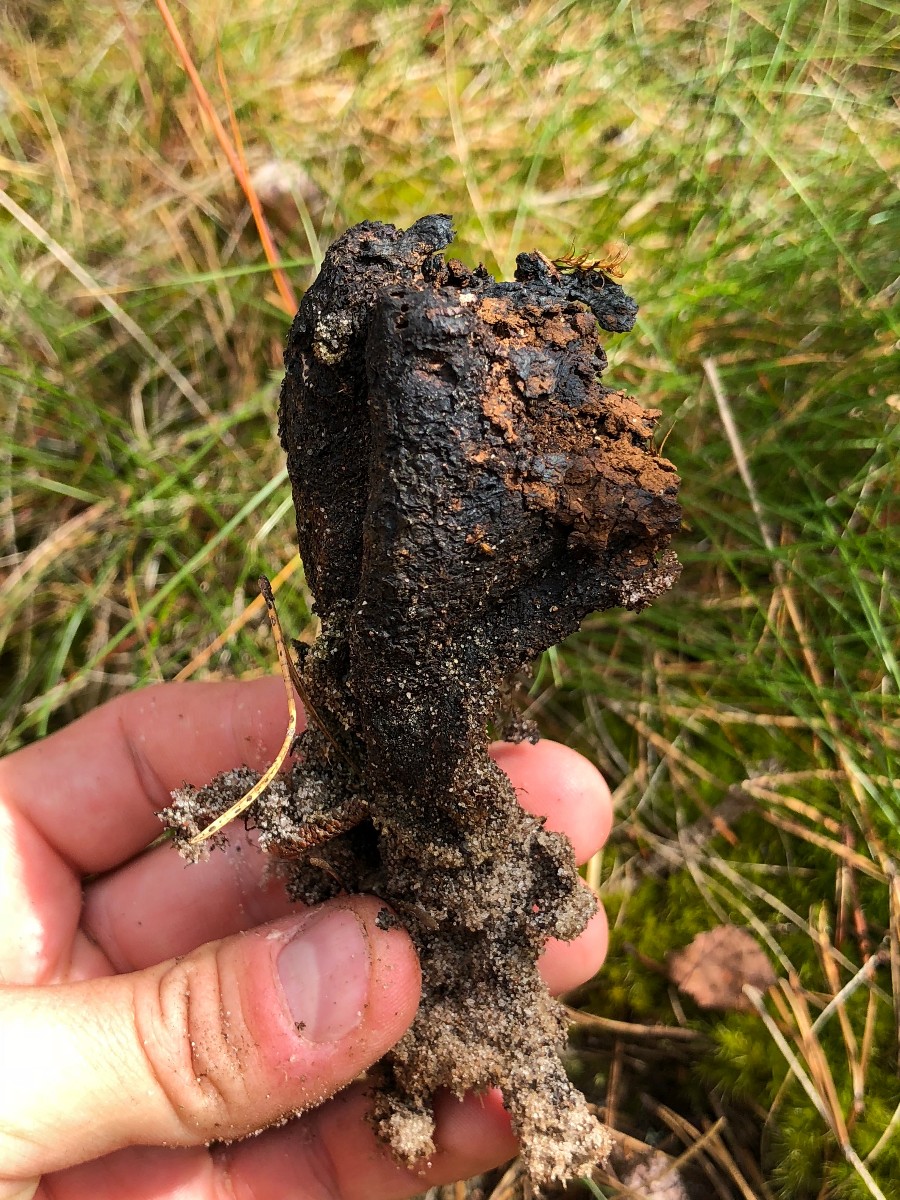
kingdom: Fungi
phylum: Basidiomycota
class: Agaricomycetes
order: Boletales
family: Sclerodermataceae
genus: Pisolithus
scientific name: Pisolithus capsulifer
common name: farvebold
